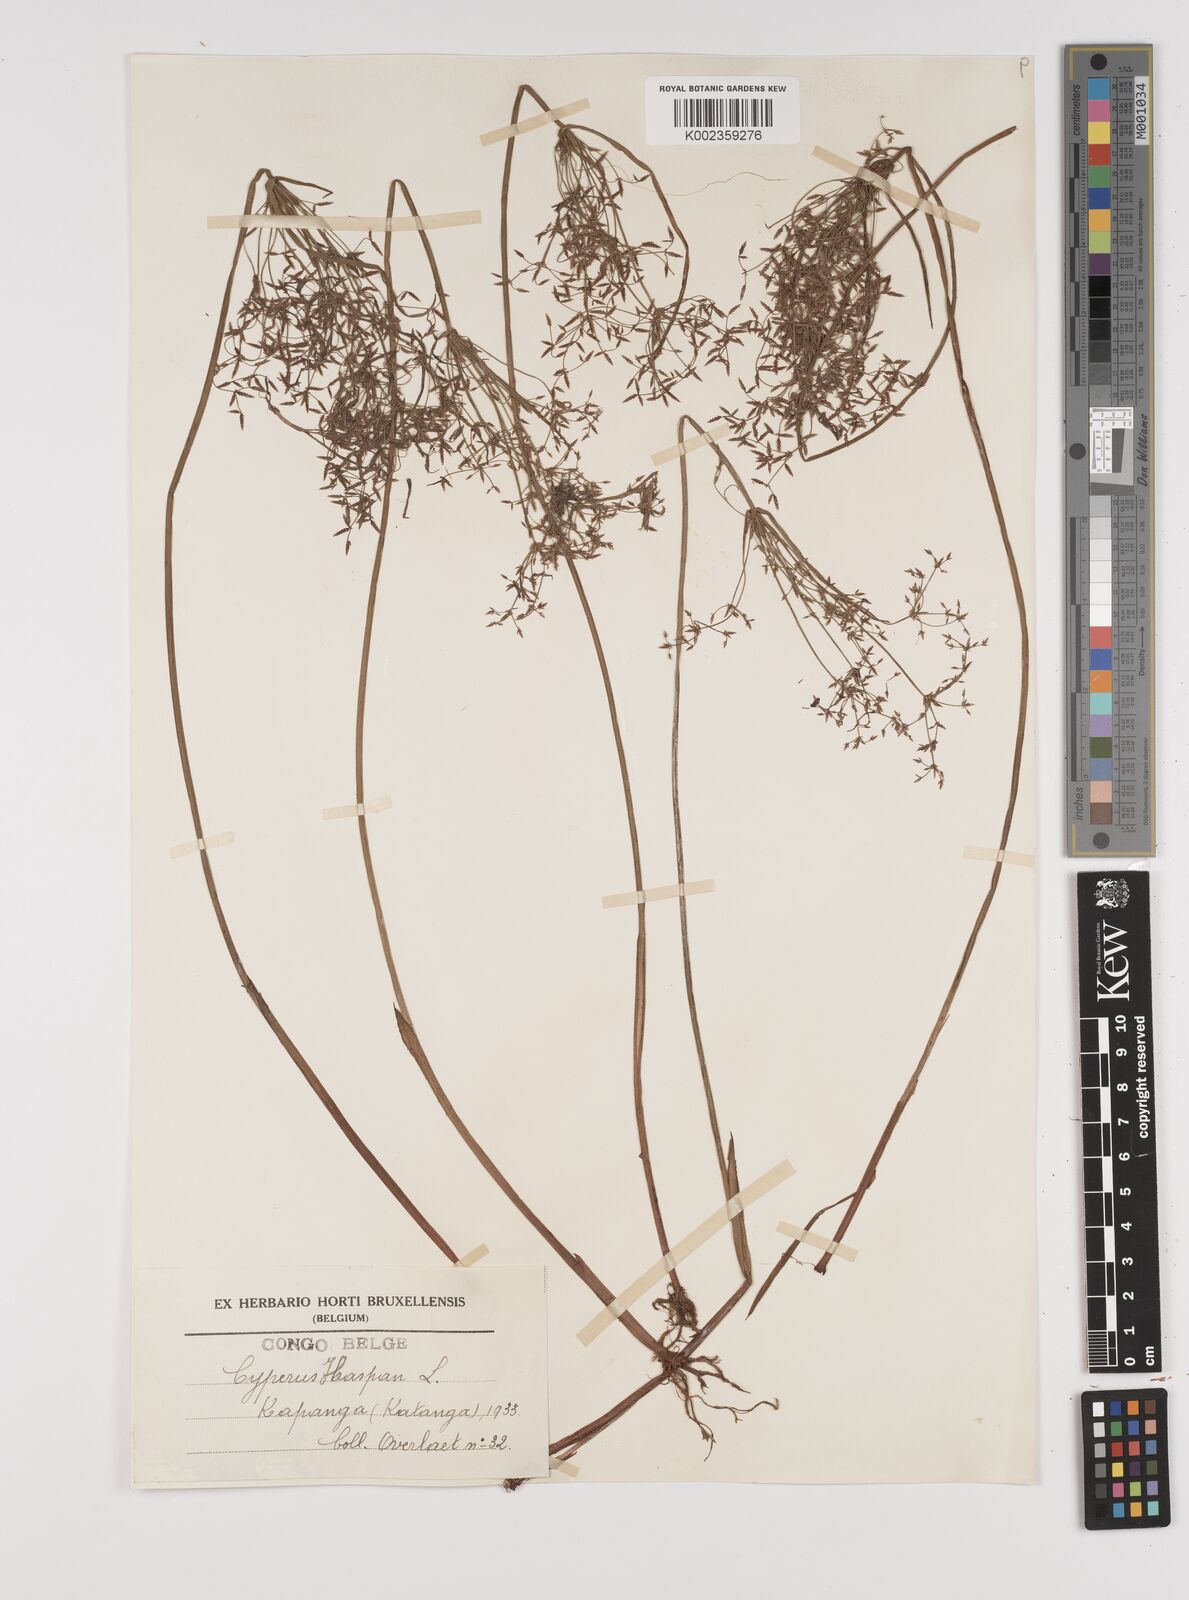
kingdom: Plantae
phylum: Tracheophyta
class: Liliopsida
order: Poales
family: Cyperaceae
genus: Cyperus
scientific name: Cyperus haspan
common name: Haspan flatsedge
